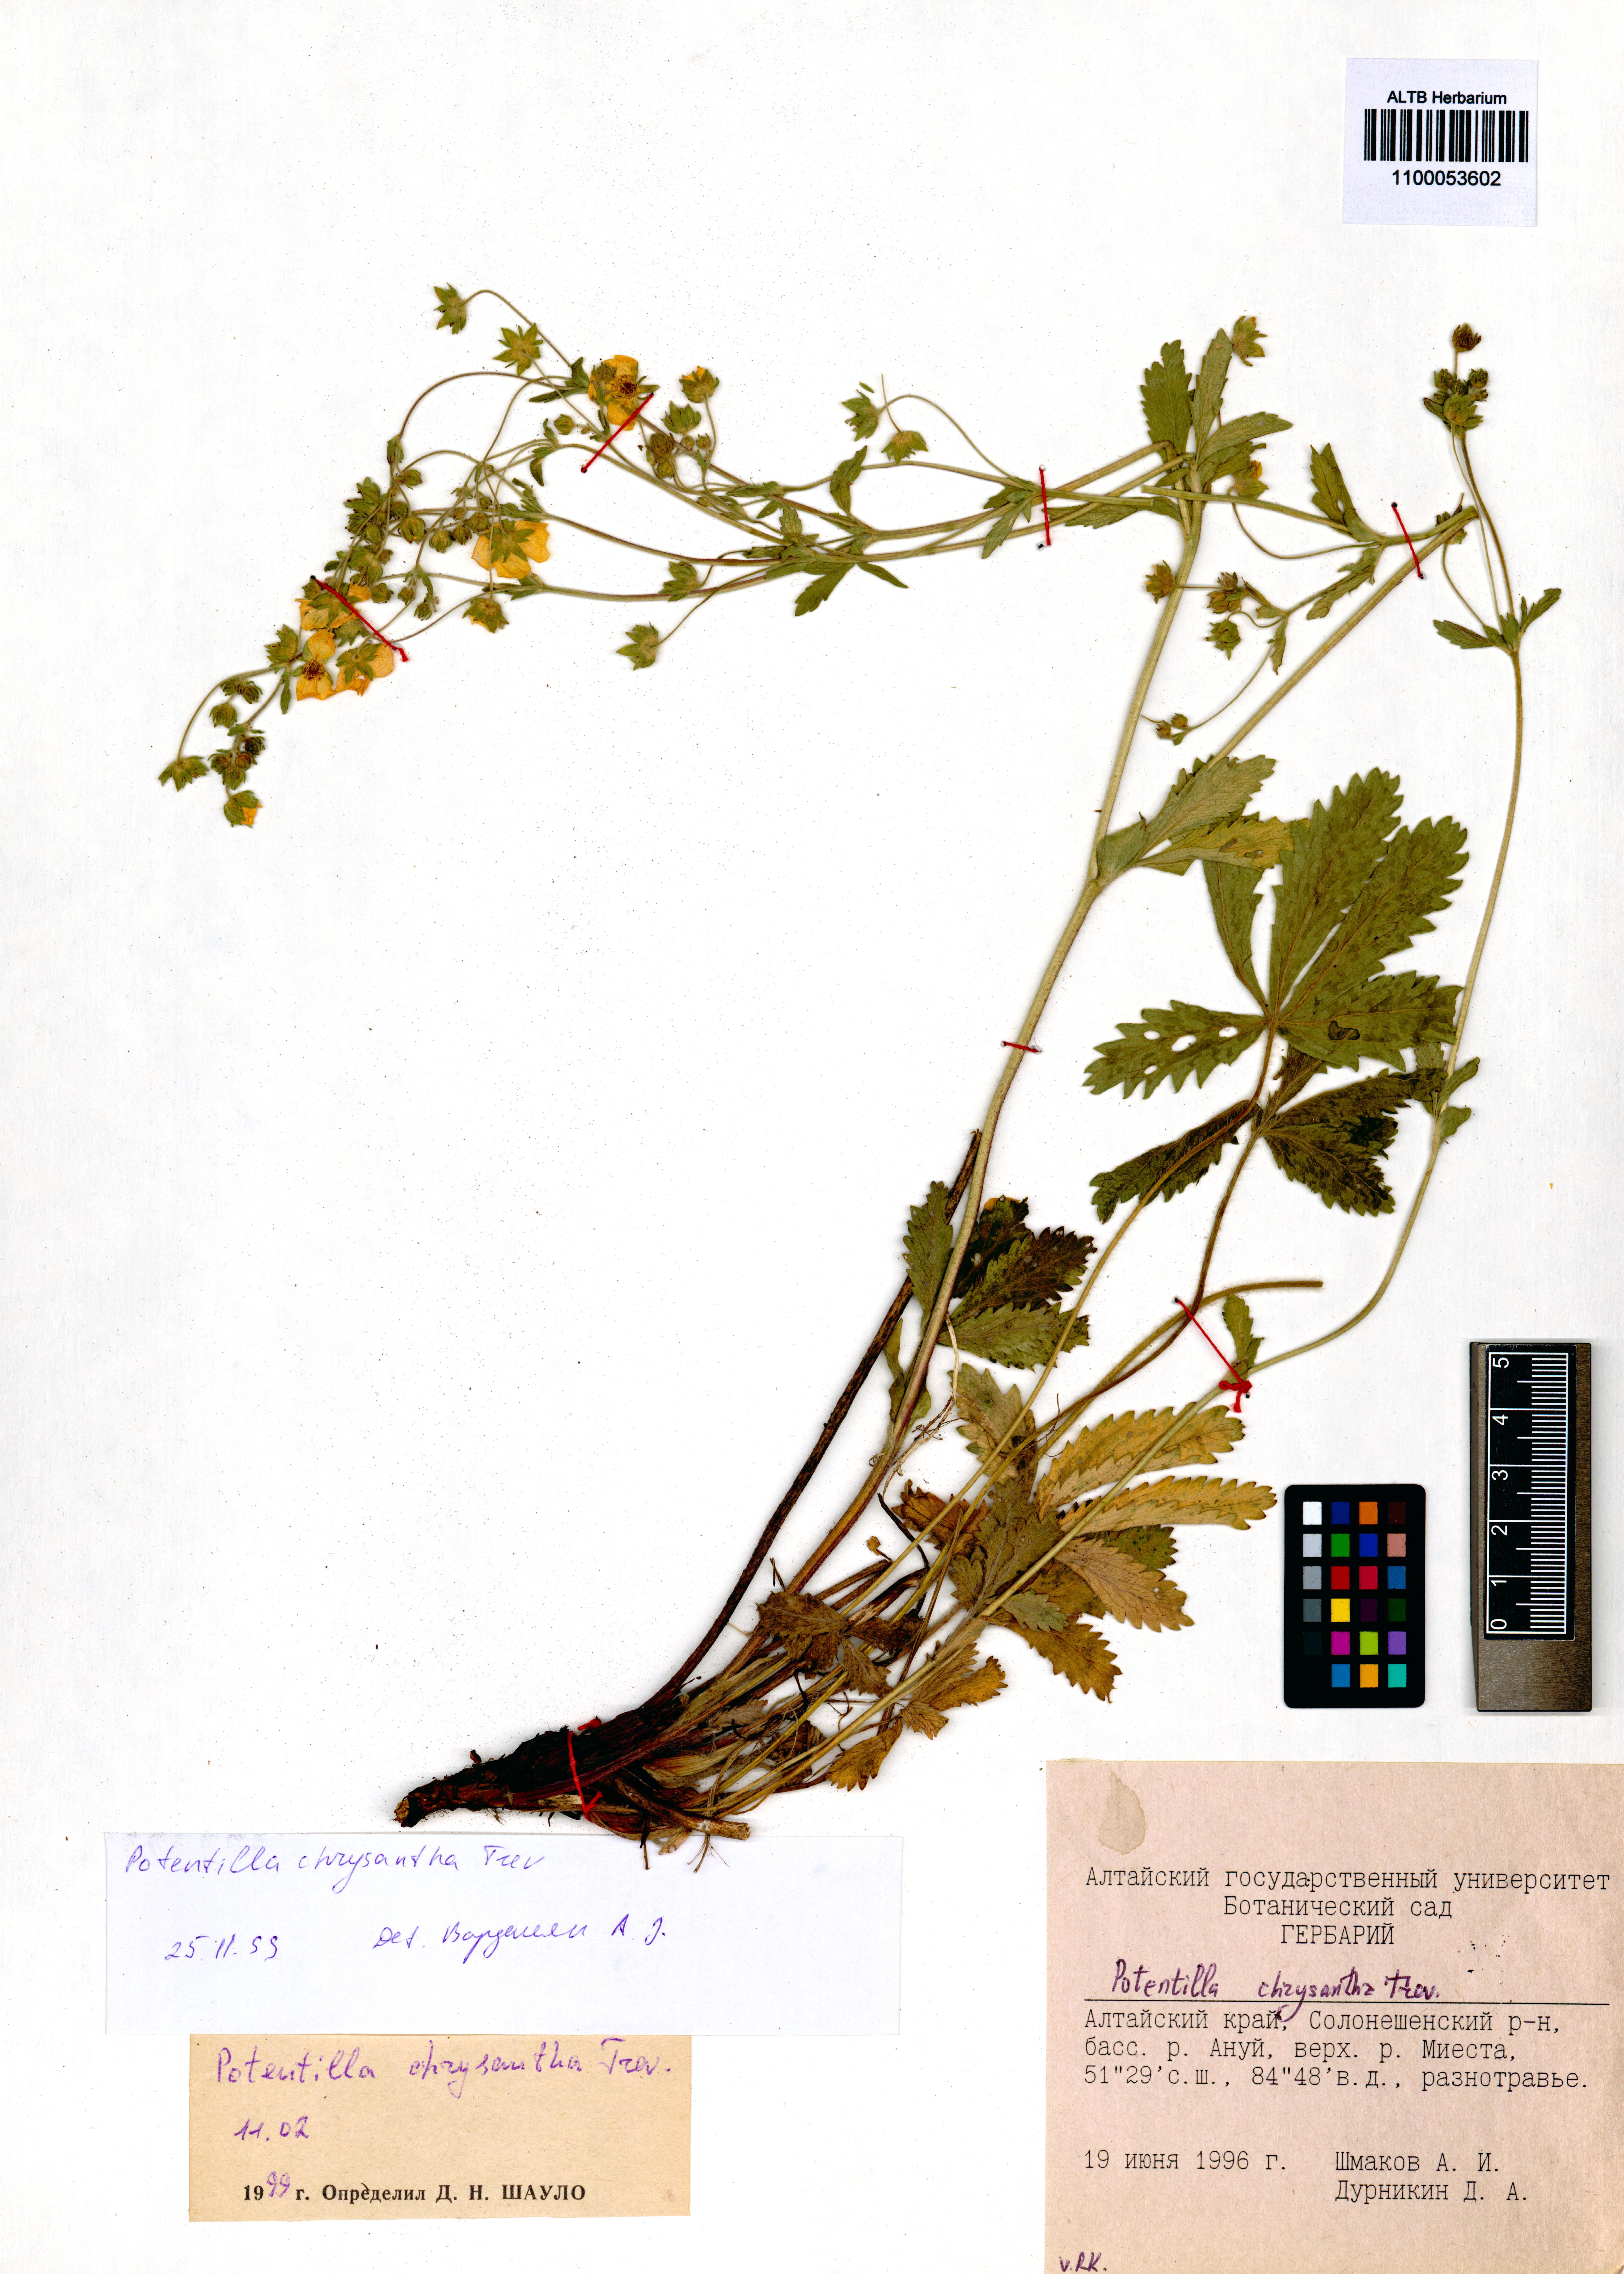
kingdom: Plantae
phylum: Tracheophyta
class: Magnoliopsida
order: Rosales
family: Rosaceae
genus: Potentilla
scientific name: Potentilla chrysantha
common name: Thuringian cinquefoil
